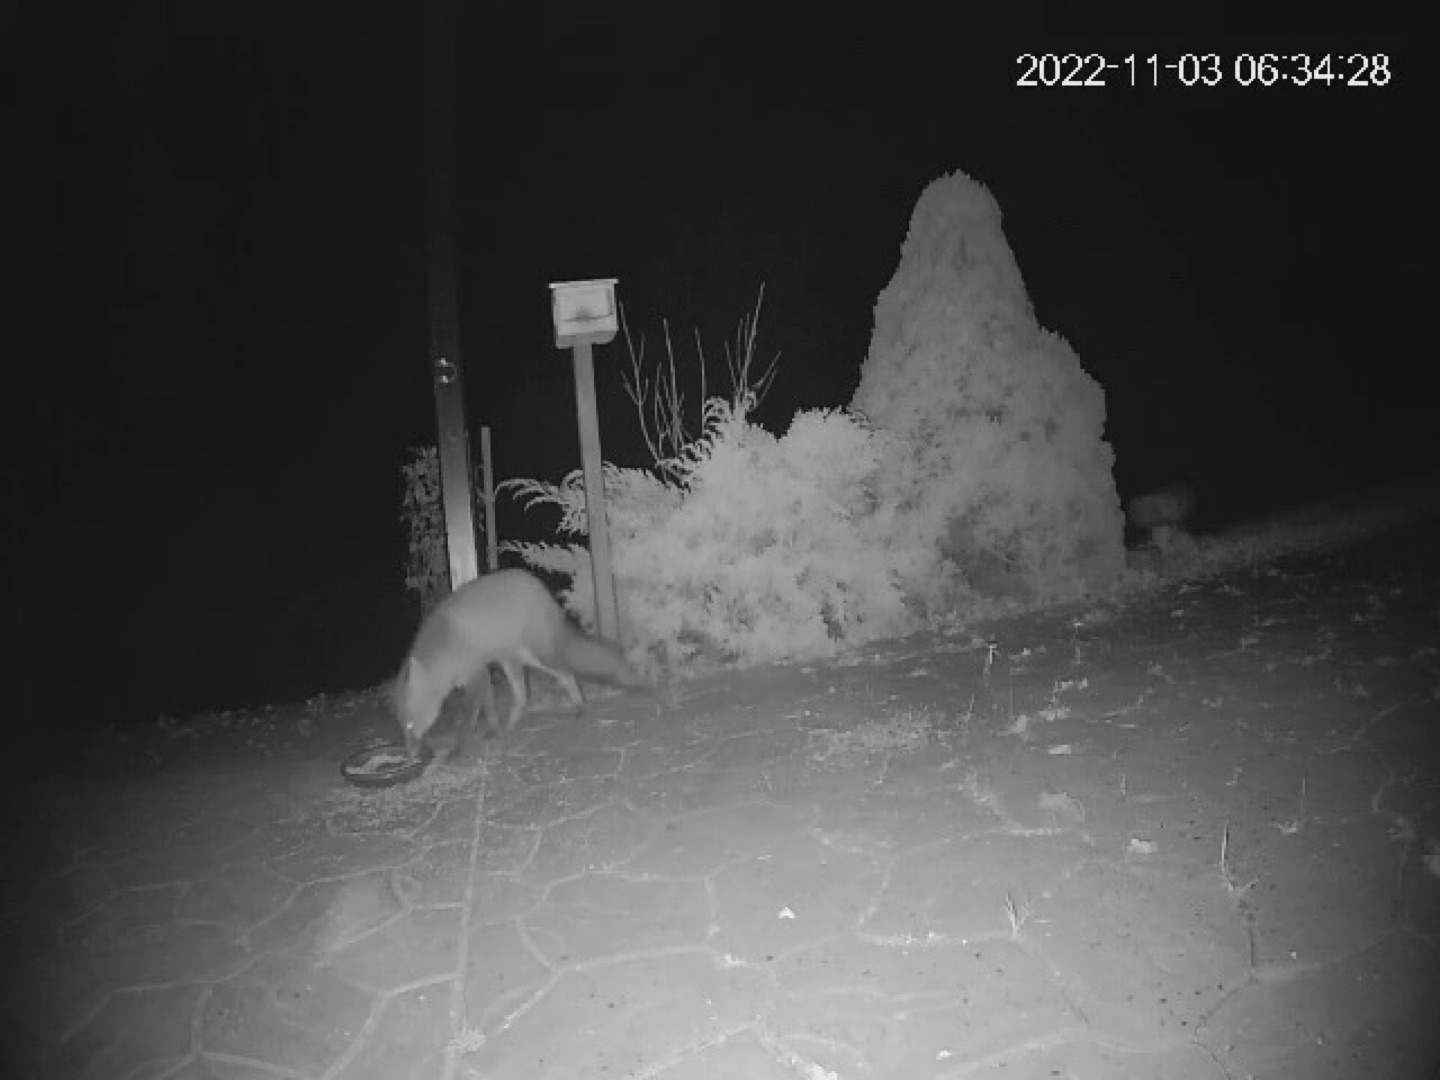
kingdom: Animalia
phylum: Chordata
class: Mammalia
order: Carnivora
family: Canidae
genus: Vulpes
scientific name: Vulpes vulpes
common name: Ræv
